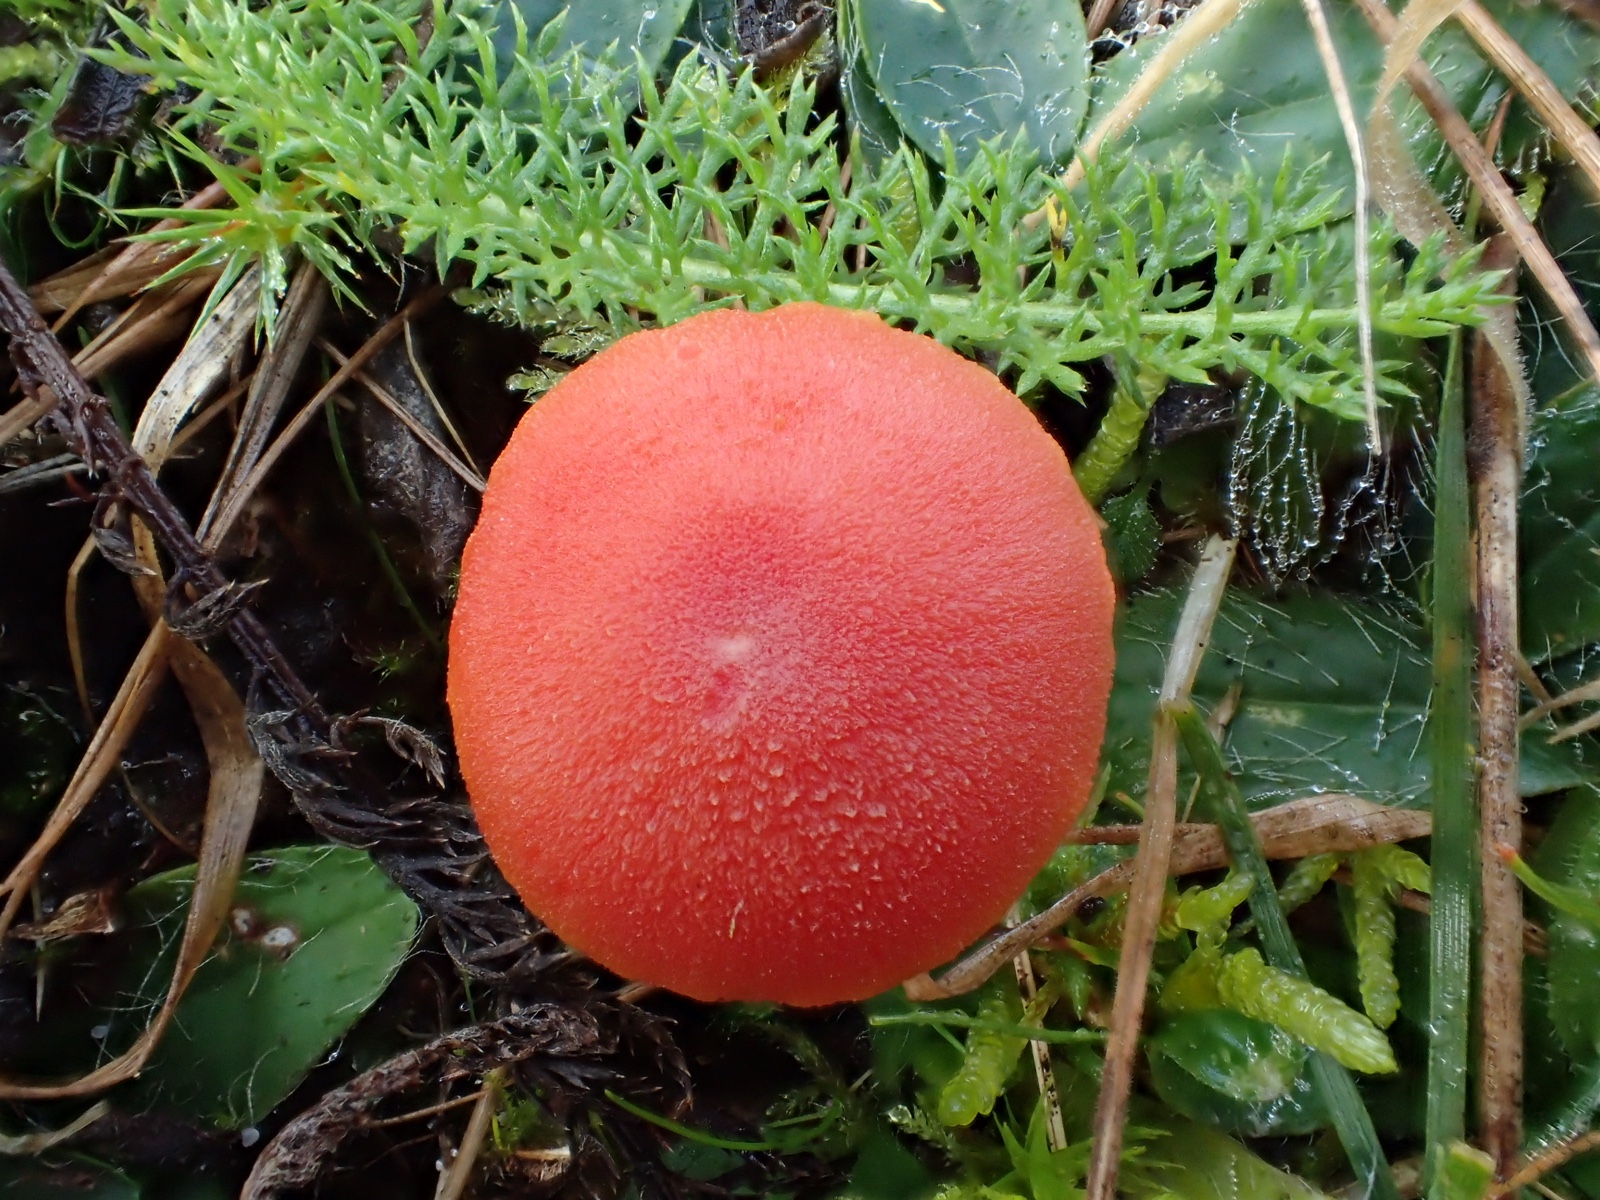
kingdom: Fungi
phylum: Basidiomycota
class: Agaricomycetes
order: Agaricales
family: Hygrophoraceae
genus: Hygrocybe
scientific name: Hygrocybe miniata
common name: mønje-vokshat
